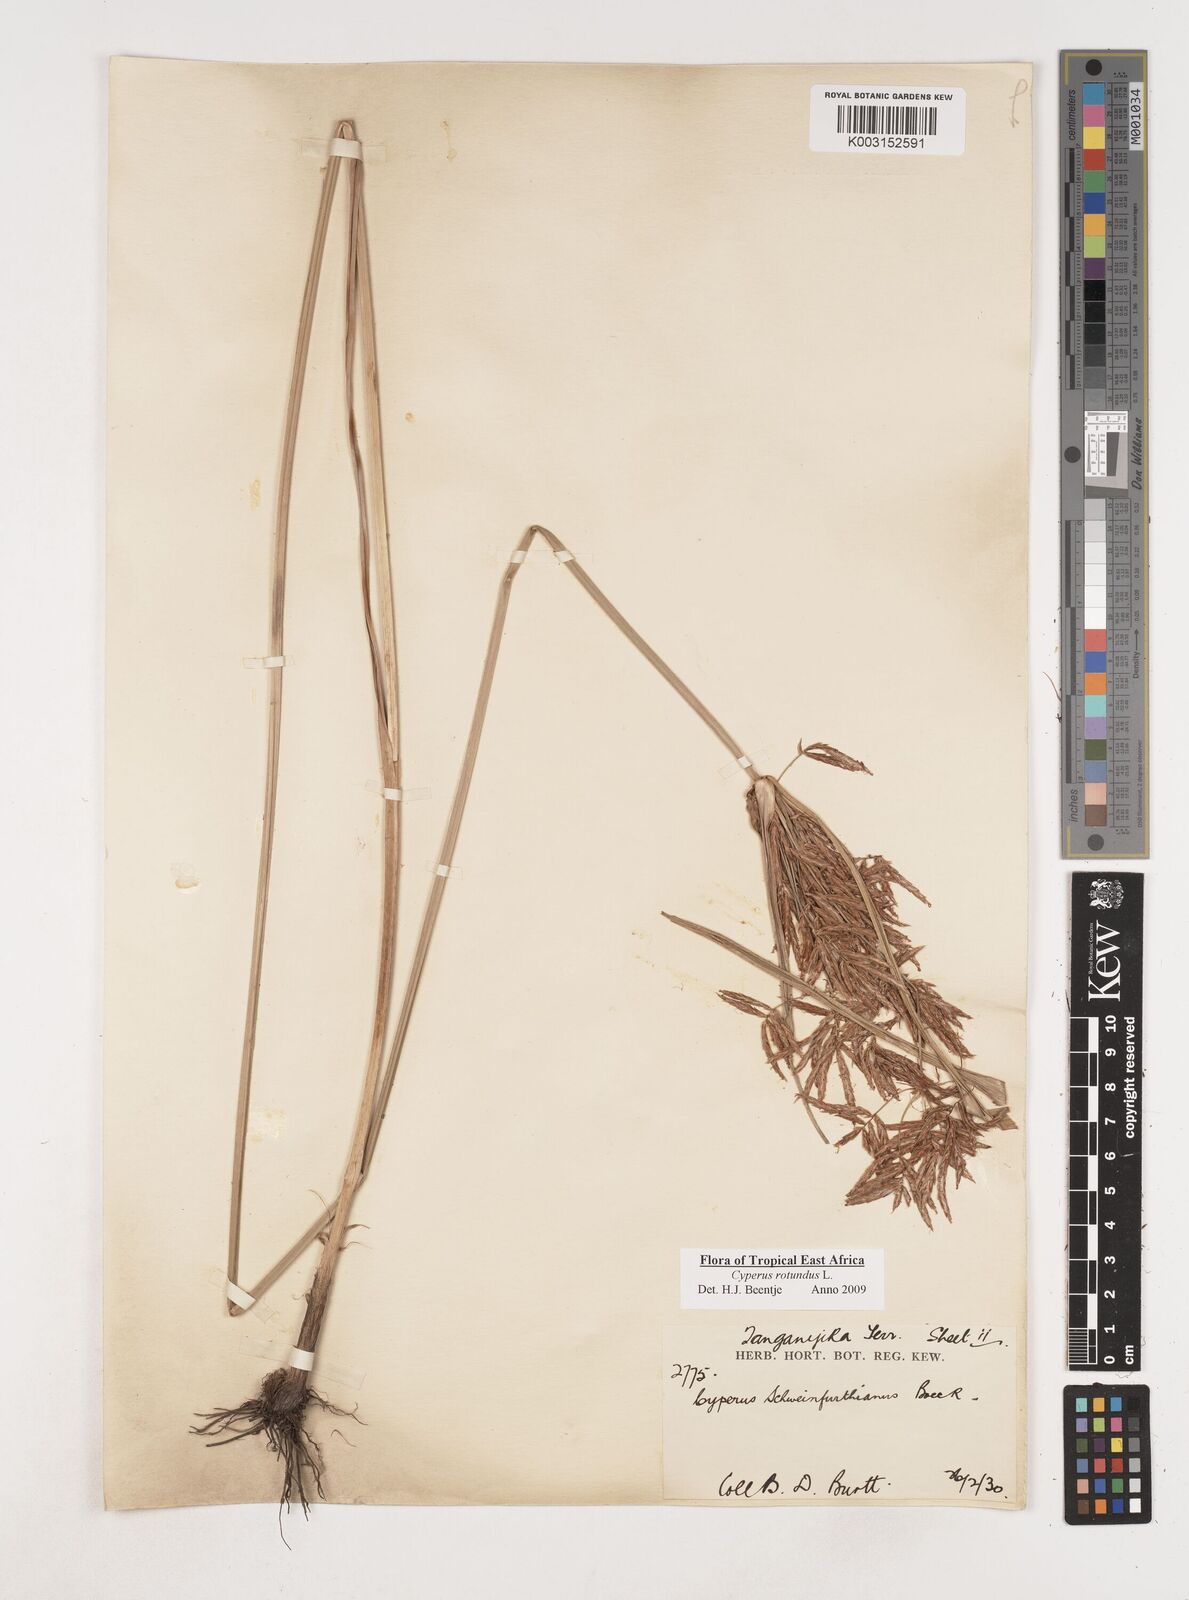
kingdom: Plantae
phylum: Tracheophyta
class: Liliopsida
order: Poales
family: Cyperaceae
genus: Cyperus
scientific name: Cyperus rotundus
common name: Nutgrass
